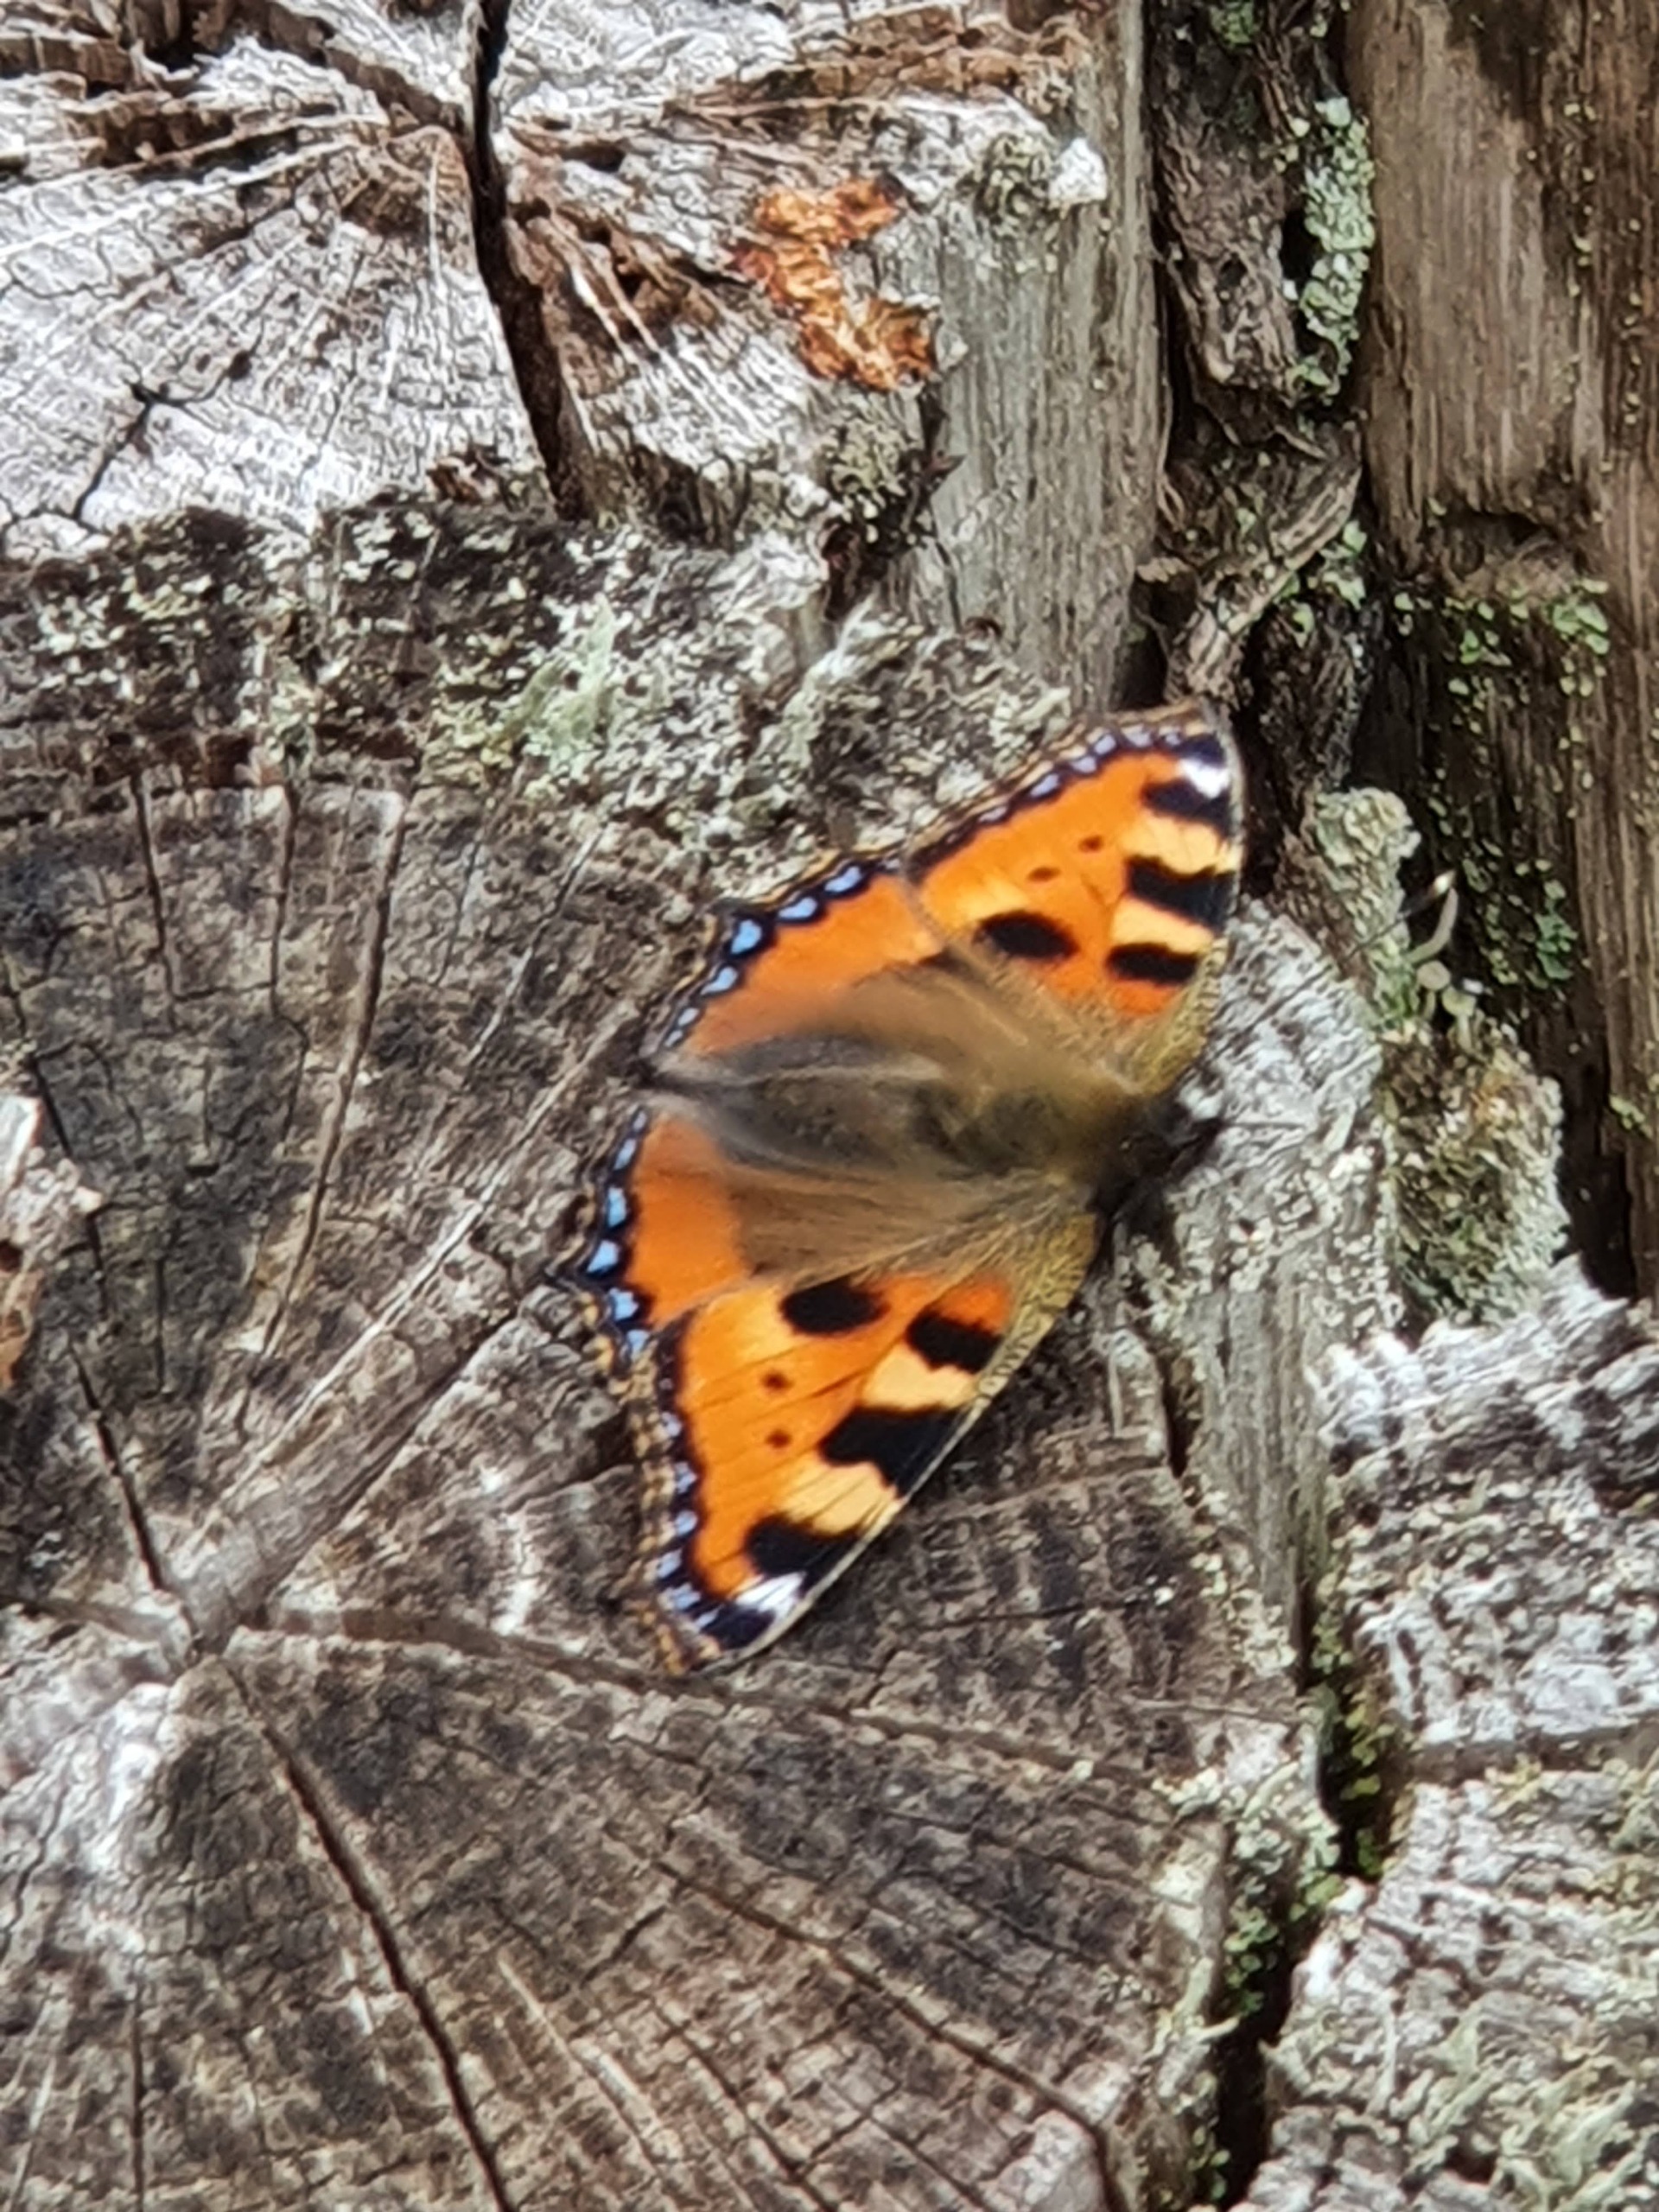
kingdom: Animalia
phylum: Arthropoda
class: Insecta
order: Lepidoptera
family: Nymphalidae
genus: Aglais
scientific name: Aglais urticae
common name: Nældens takvinge
